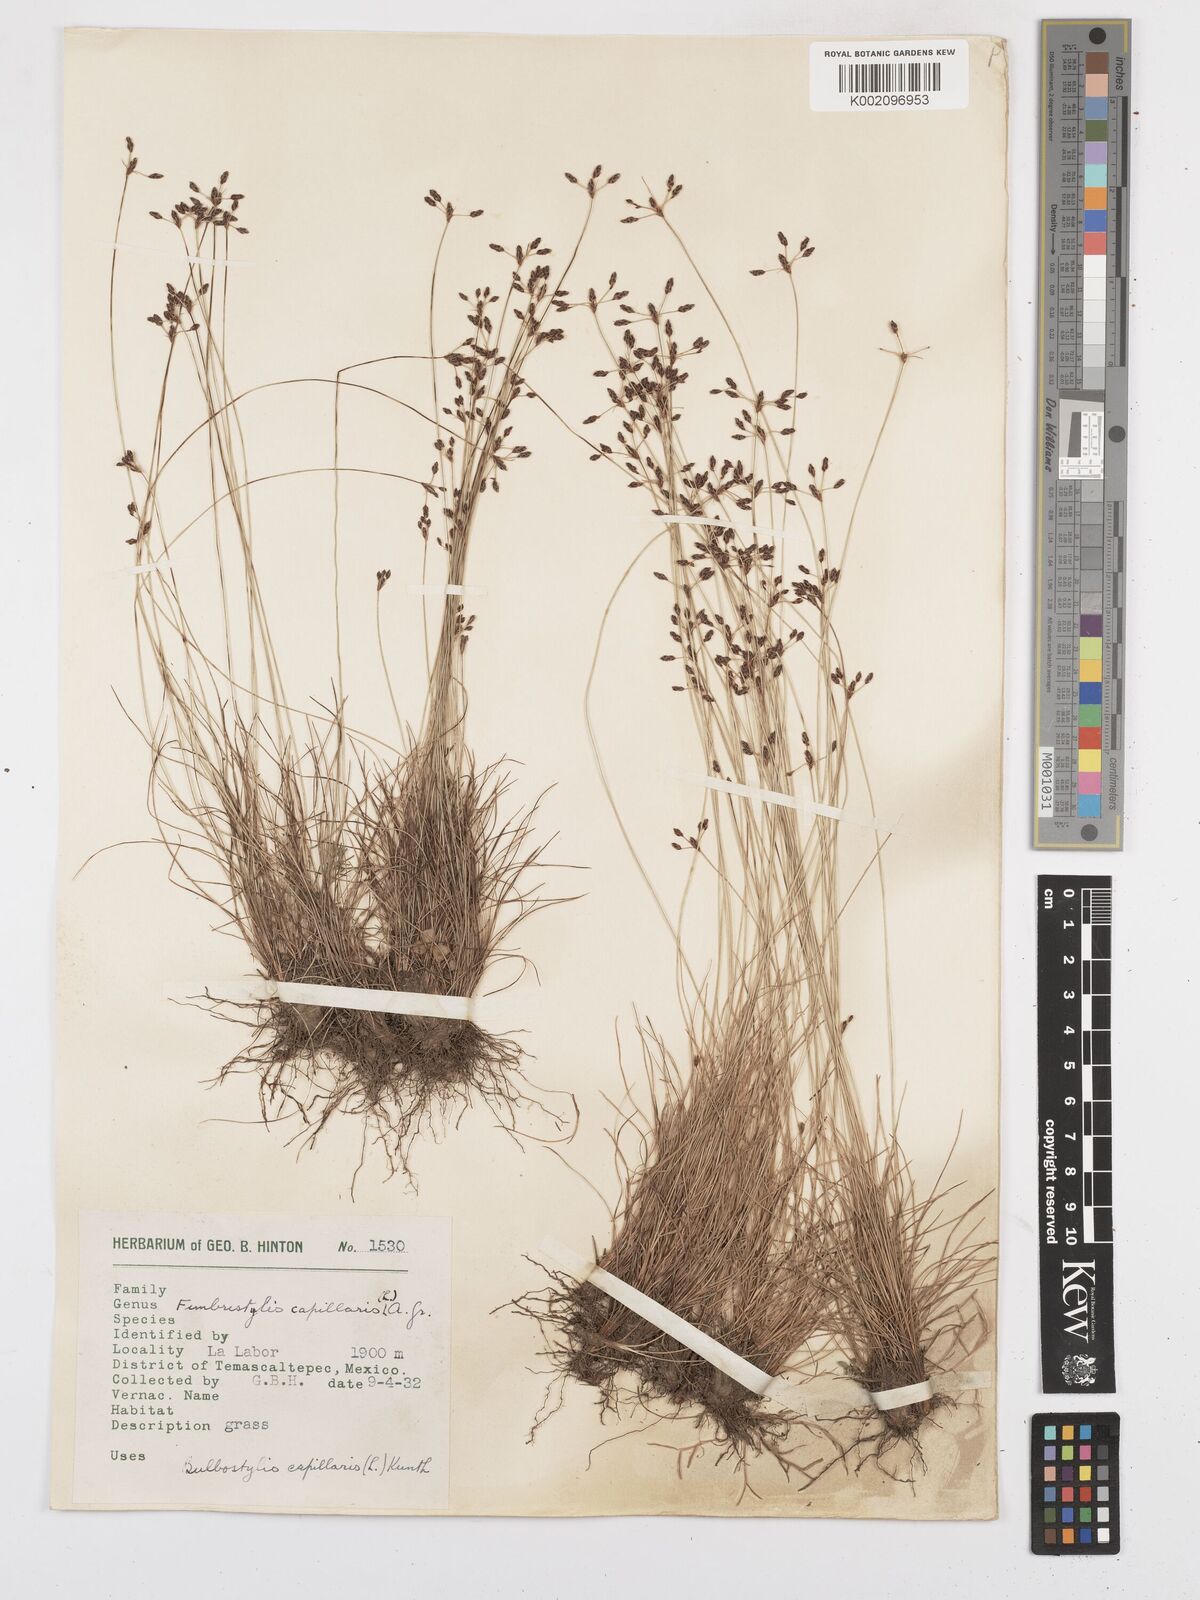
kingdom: Plantae
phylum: Tracheophyta
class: Liliopsida
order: Poales
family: Cyperaceae
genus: Bulbostylis
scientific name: Bulbostylis capillaris
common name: Densetuft hairsedge
